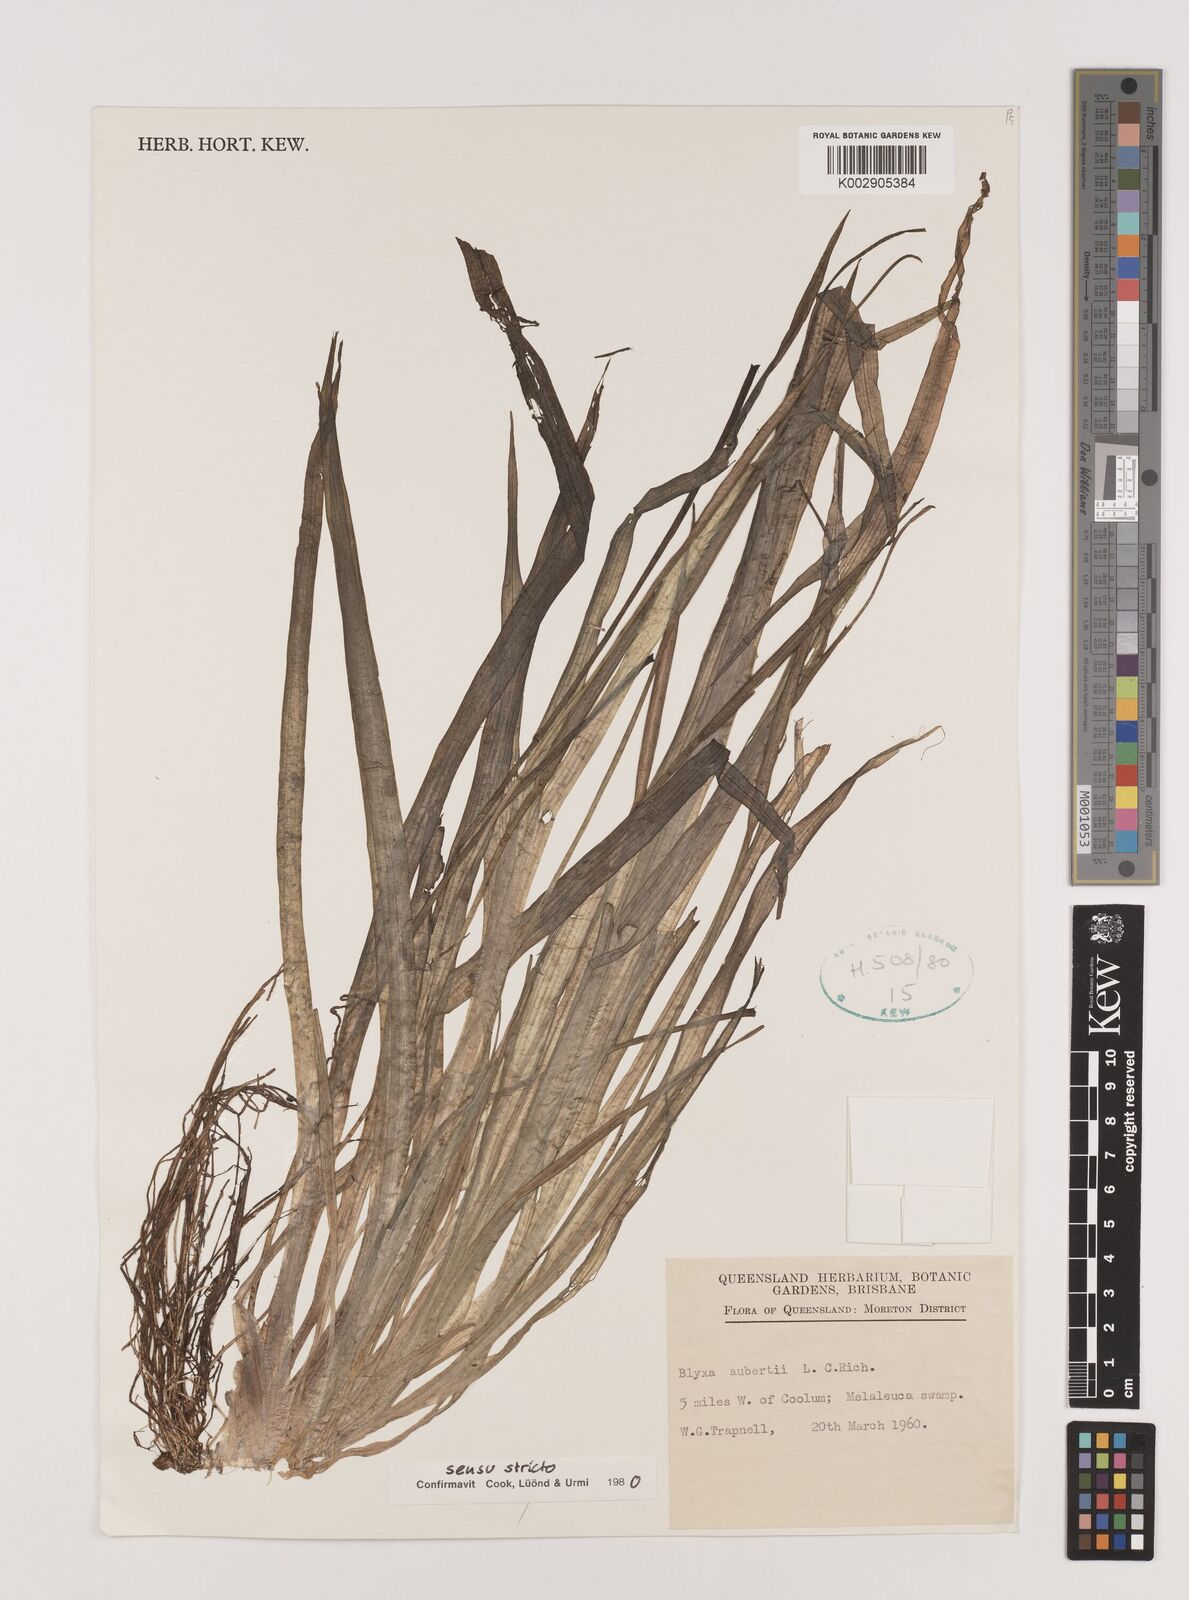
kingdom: Plantae
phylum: Tracheophyta
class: Liliopsida
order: Alismatales
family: Hydrocharitaceae
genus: Blyxa
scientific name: Blyxa aubertii
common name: Roundfruit blyxa
